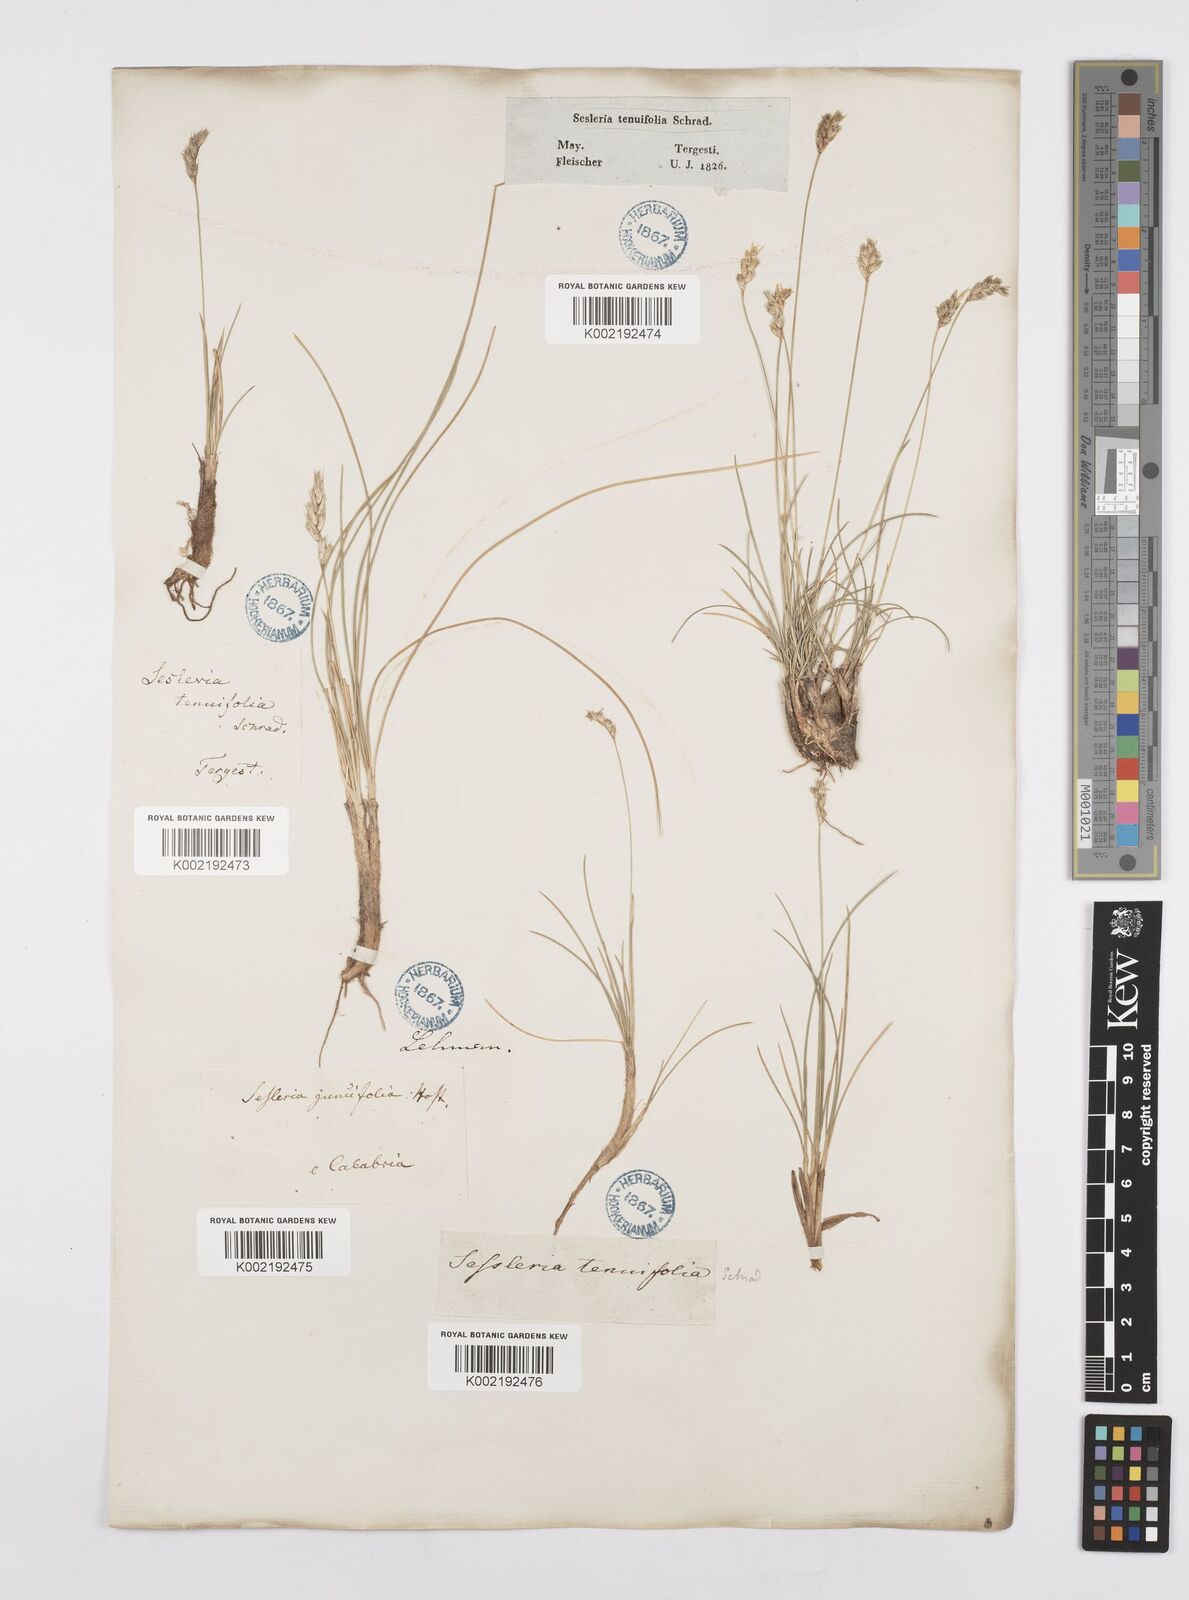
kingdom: Plantae
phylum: Tracheophyta
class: Liliopsida
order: Poales
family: Poaceae
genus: Sesleria
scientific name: Sesleria juncifolia
